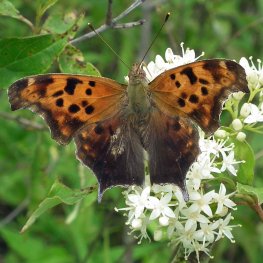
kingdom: Animalia
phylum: Arthropoda
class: Insecta
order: Lepidoptera
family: Nymphalidae
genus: Polygonia
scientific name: Polygonia interrogationis
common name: Question Mark
